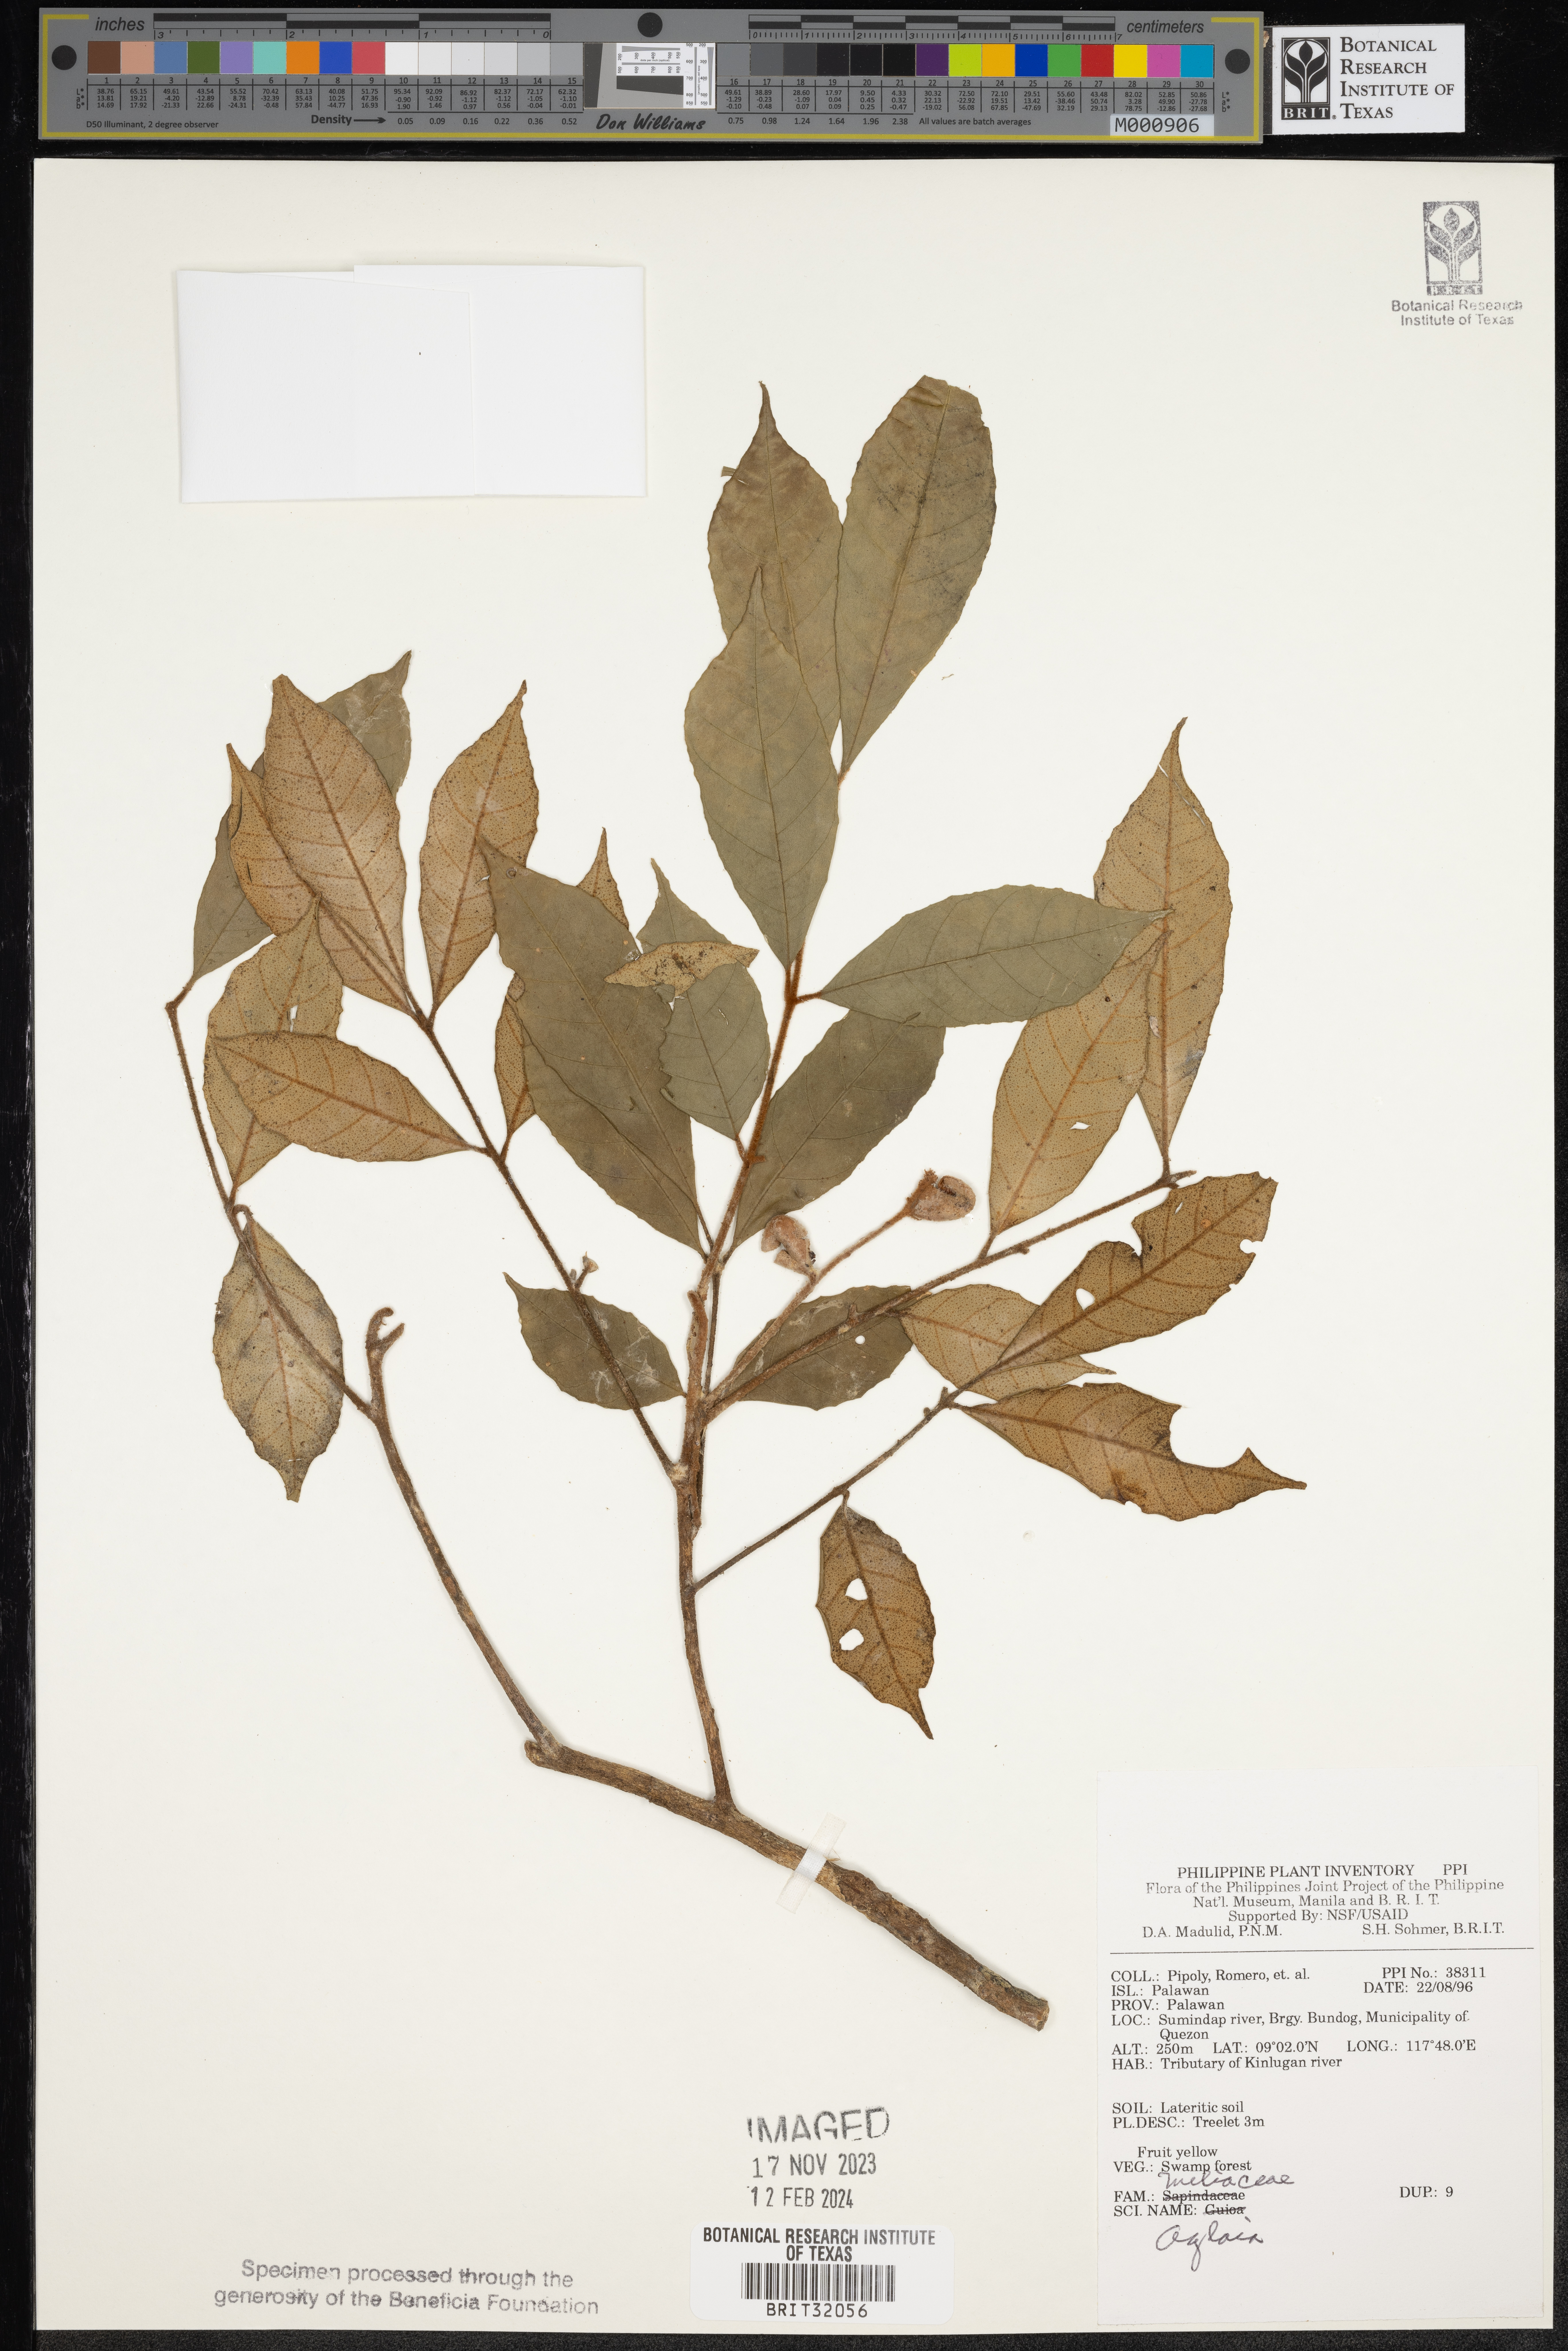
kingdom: Plantae
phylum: Tracheophyta
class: Magnoliopsida
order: Sapindales
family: Meliaceae
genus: Aglaia
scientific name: Aglaia
